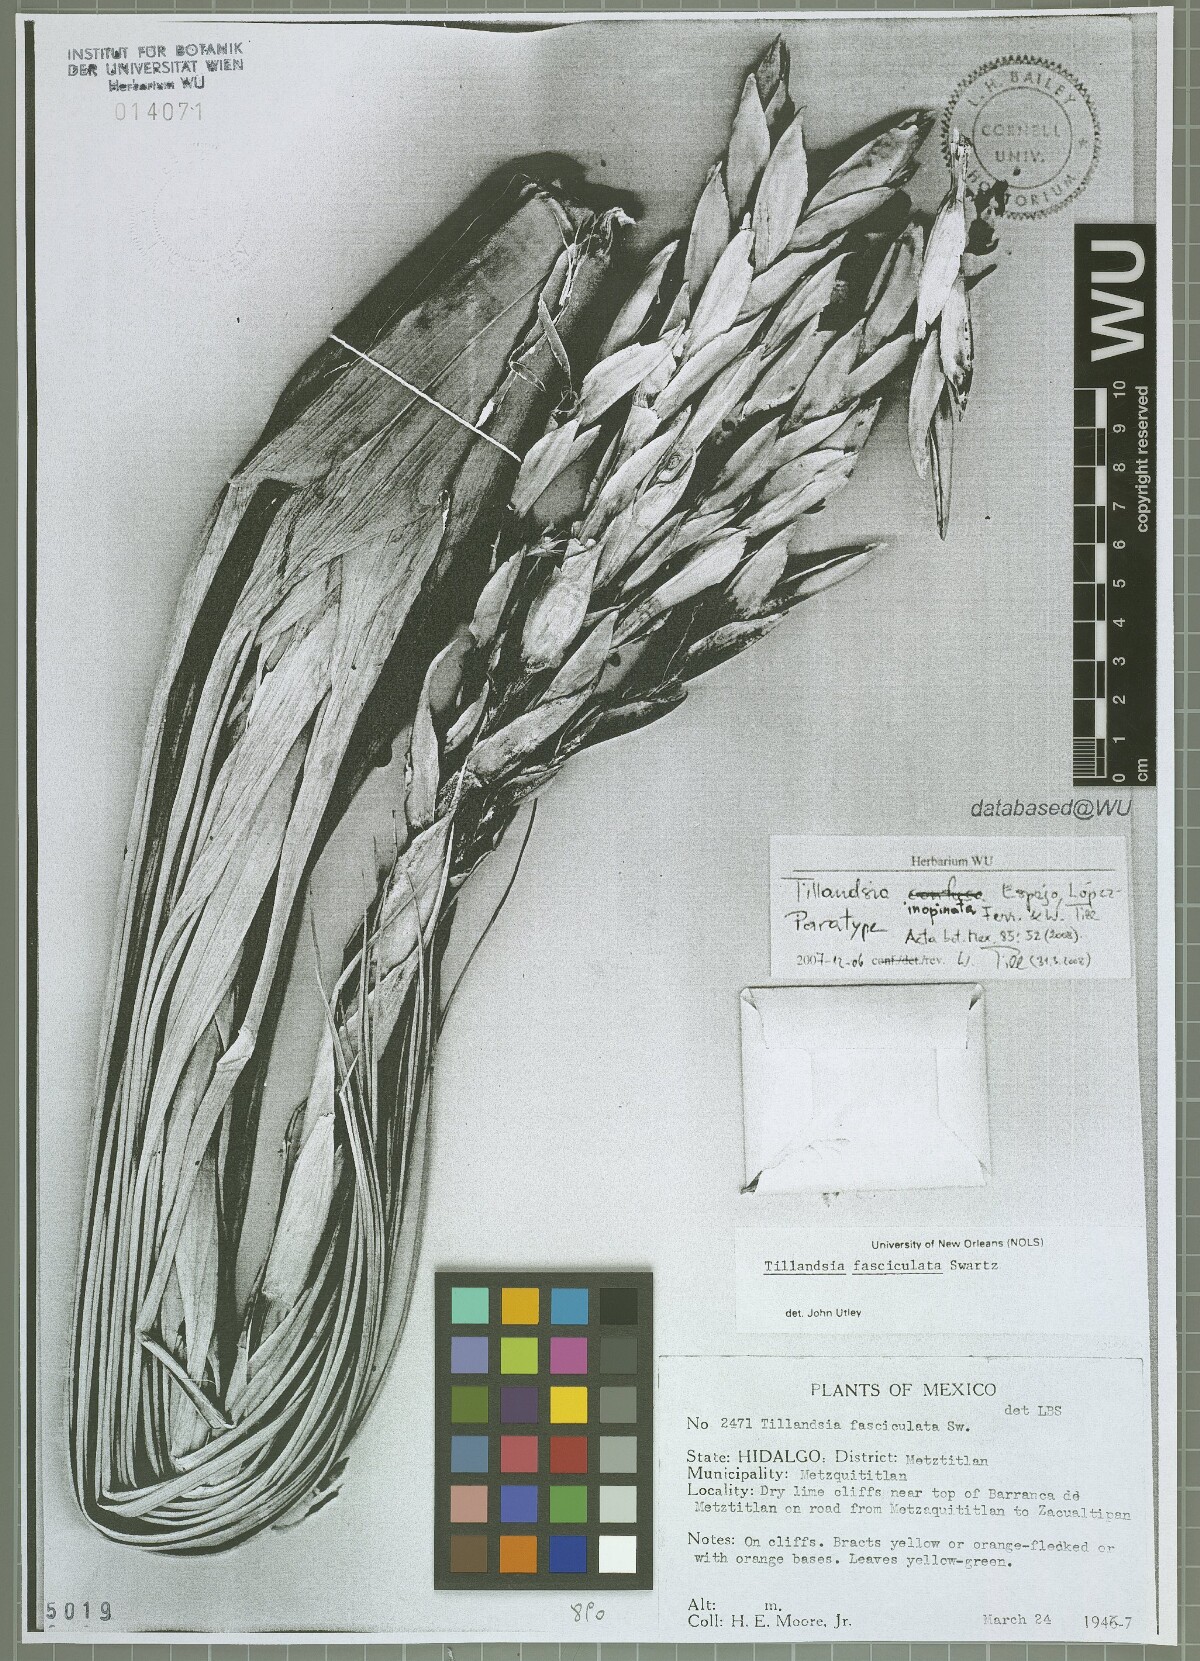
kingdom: Plantae
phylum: Tracheophyta
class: Liliopsida
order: Poales
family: Bromeliaceae
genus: Tillandsia
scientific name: Tillandsia inopinata
